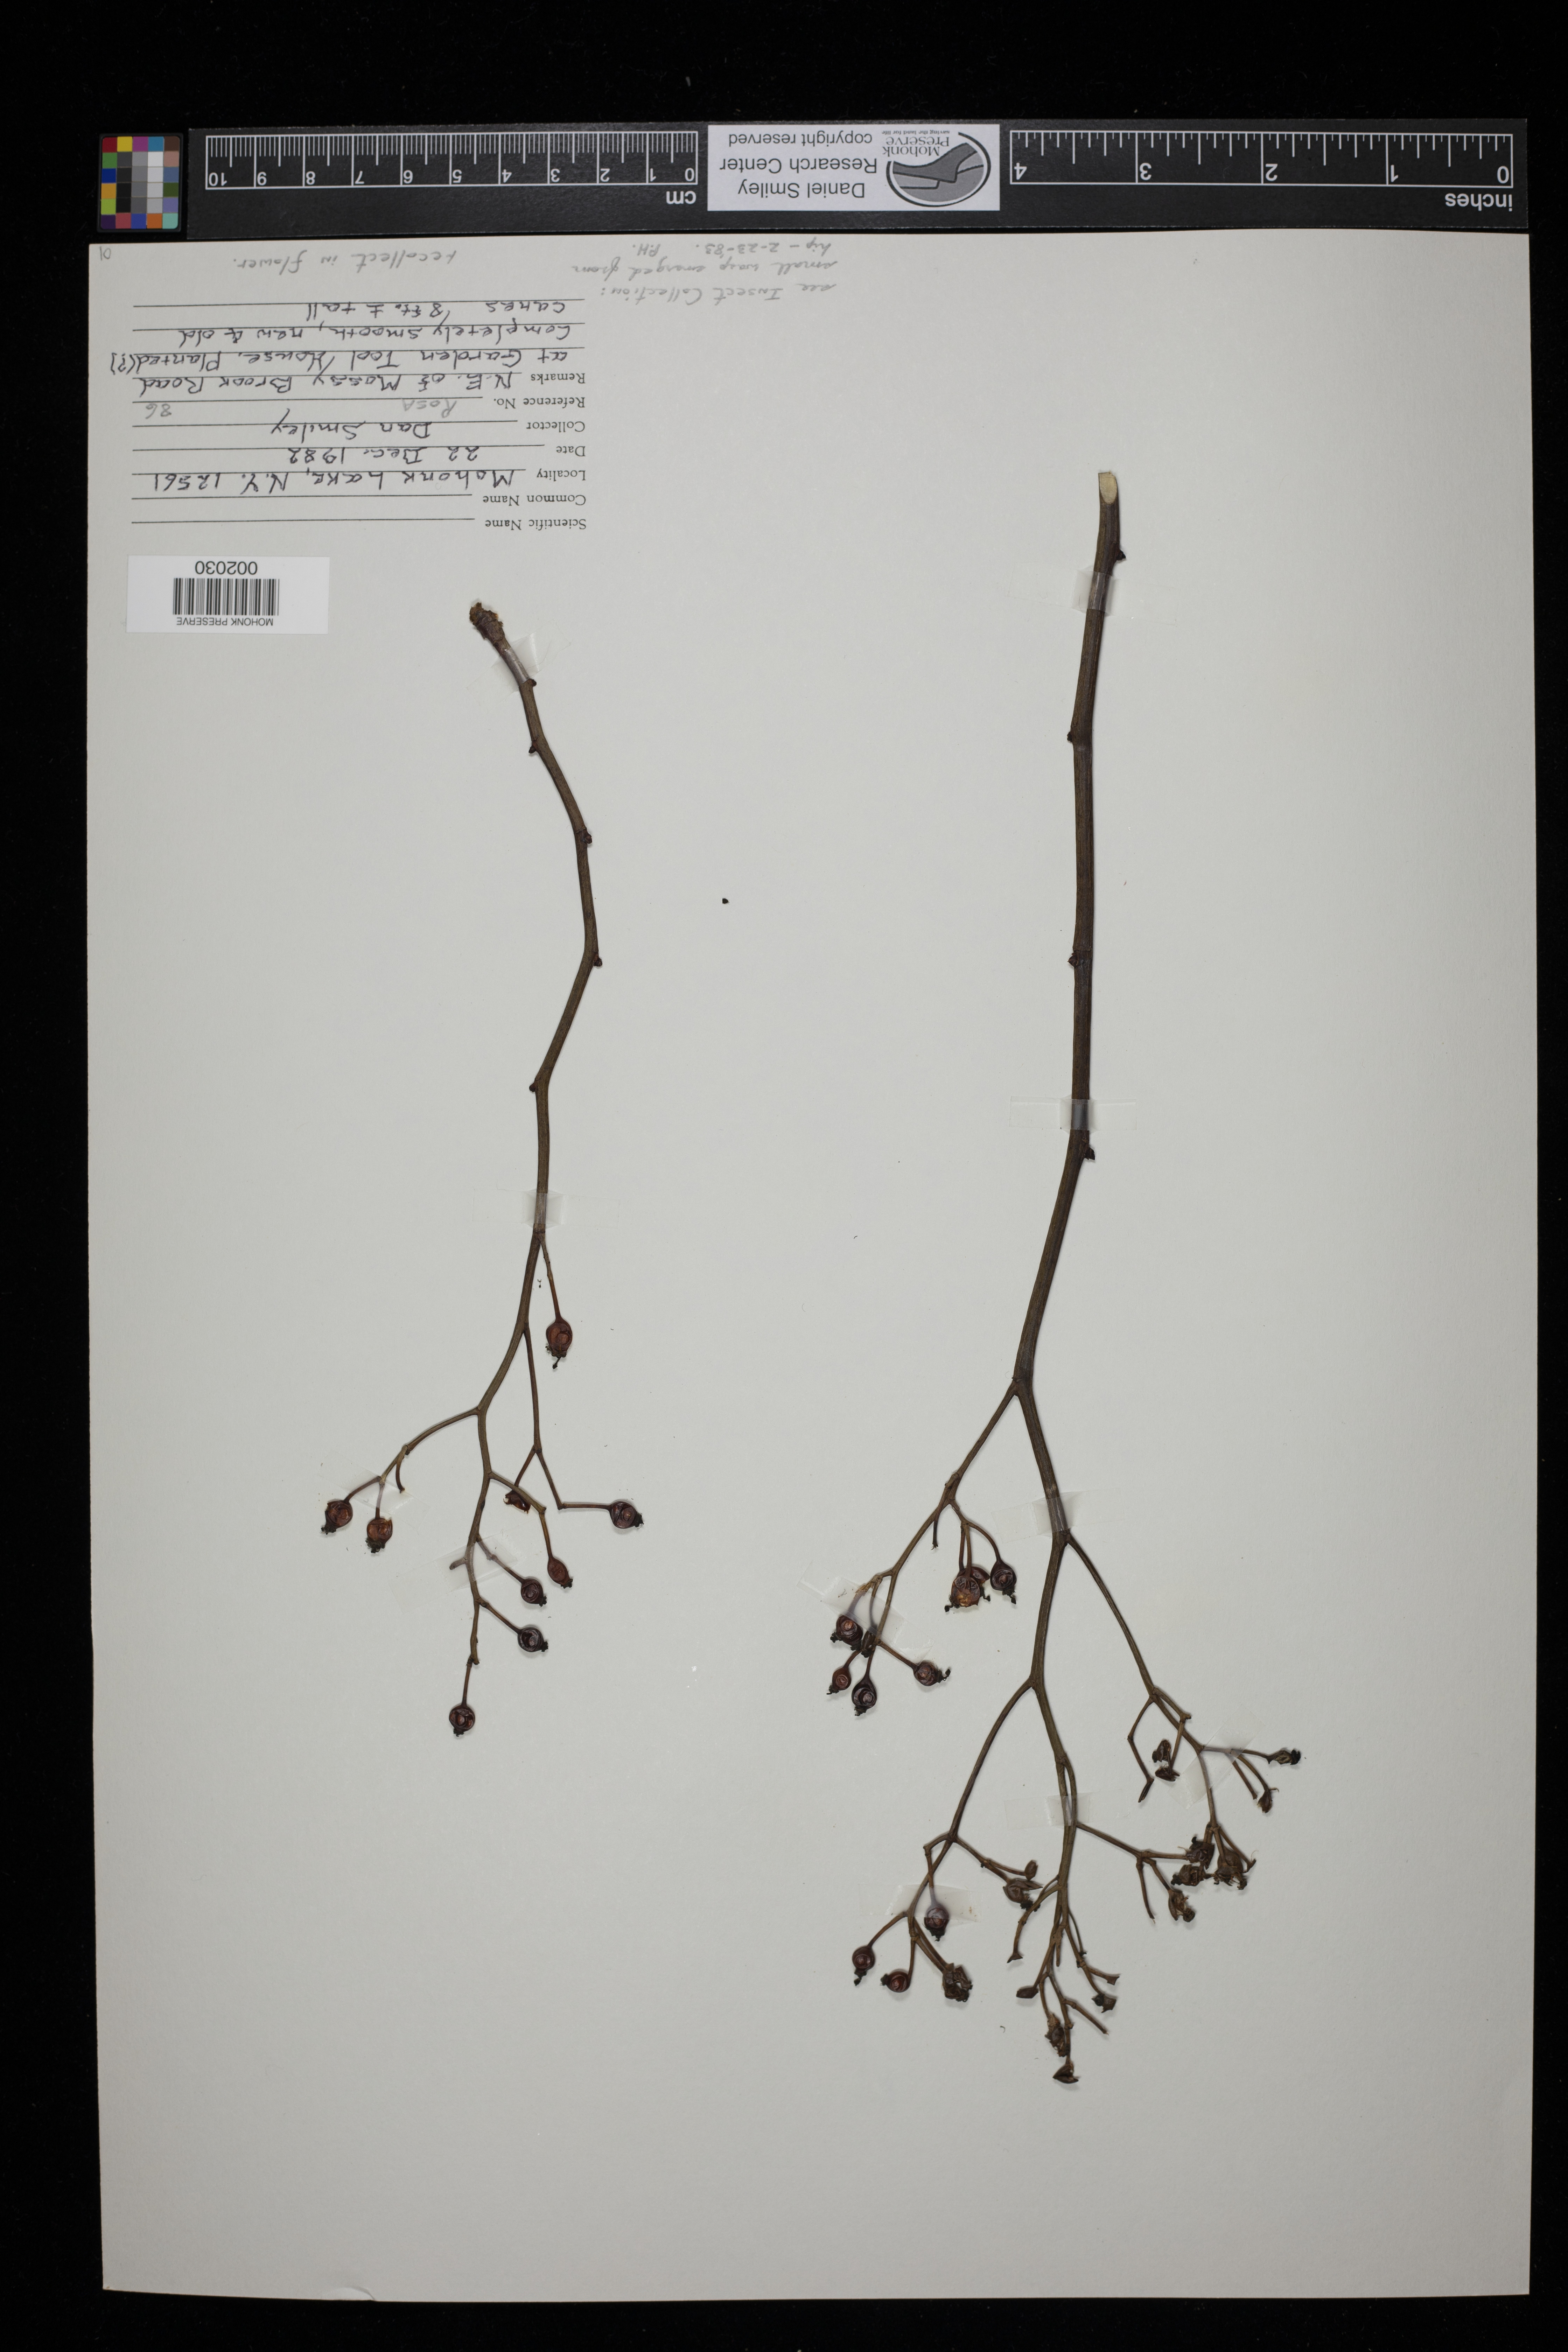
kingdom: Plantae
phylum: Tracheophyta
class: Magnoliopsida
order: Rosales
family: Rosaceae
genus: Rosa
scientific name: Rosa
